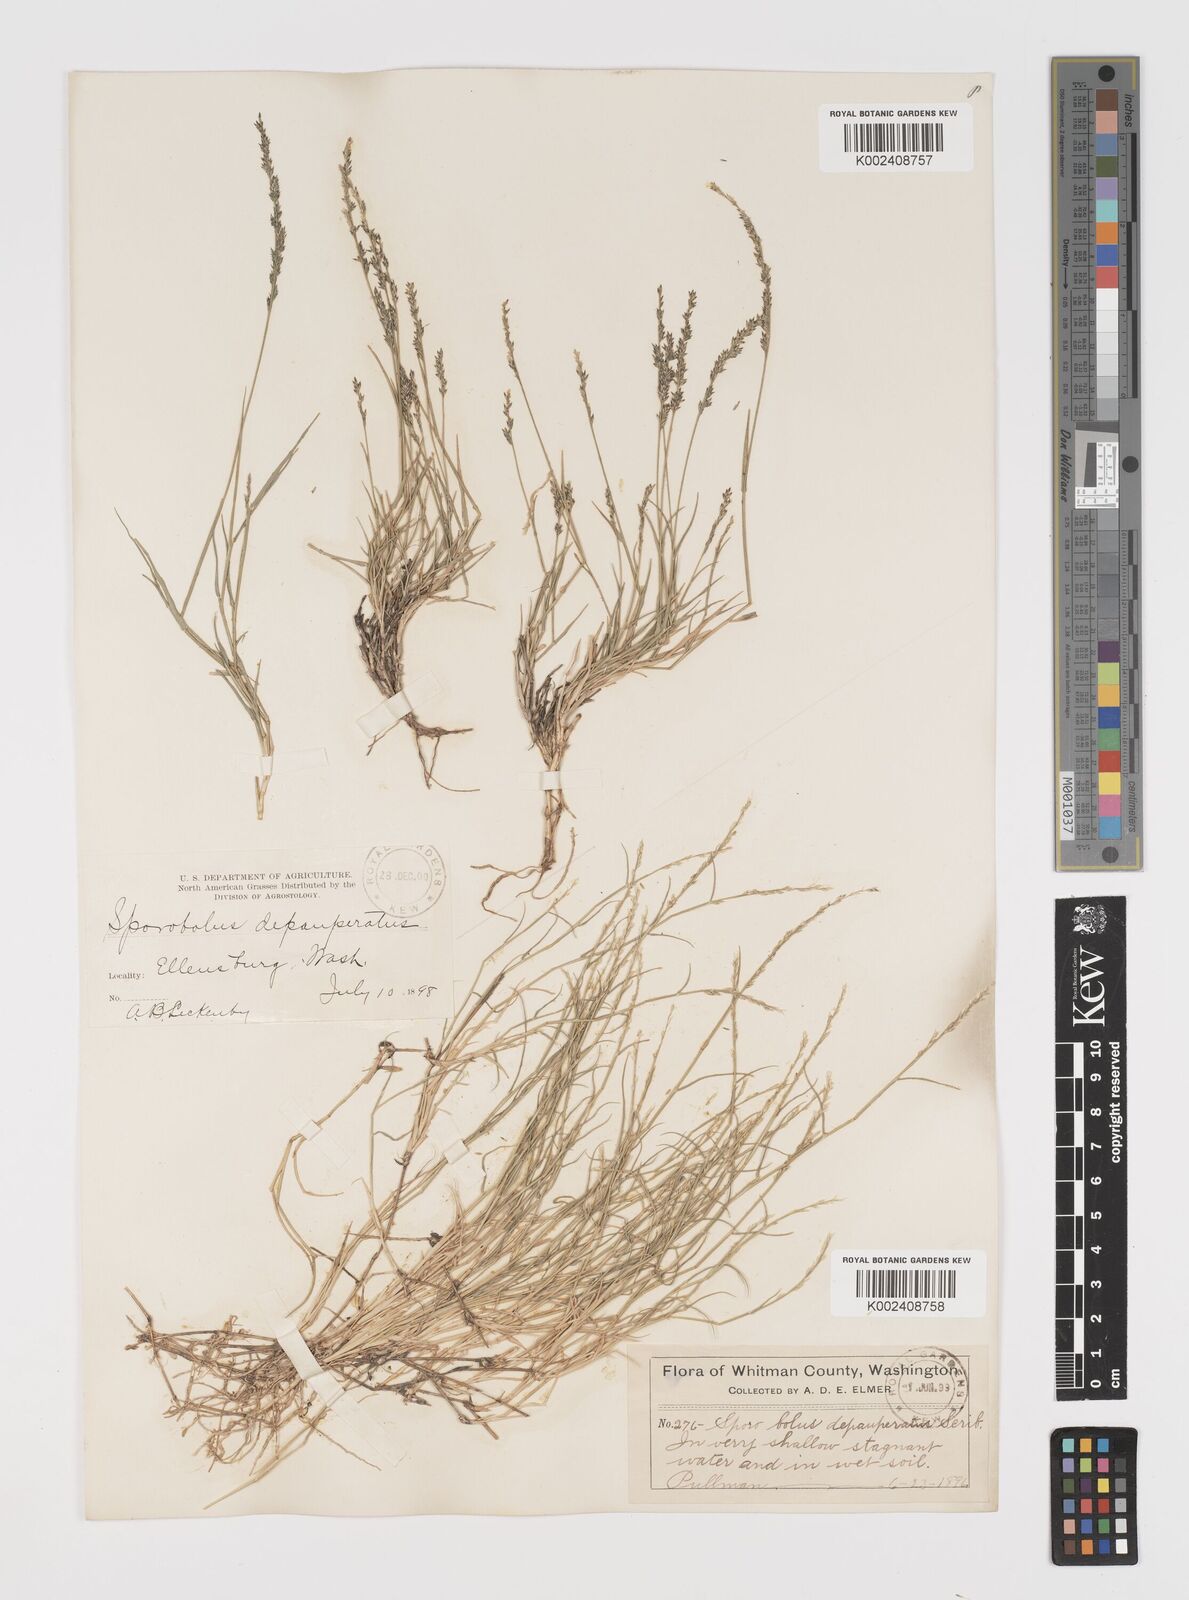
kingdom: Plantae
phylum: Tracheophyta
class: Liliopsida
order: Poales
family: Poaceae
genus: Muhlenbergia
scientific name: Muhlenbergia richardsonis
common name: Mat muhly
